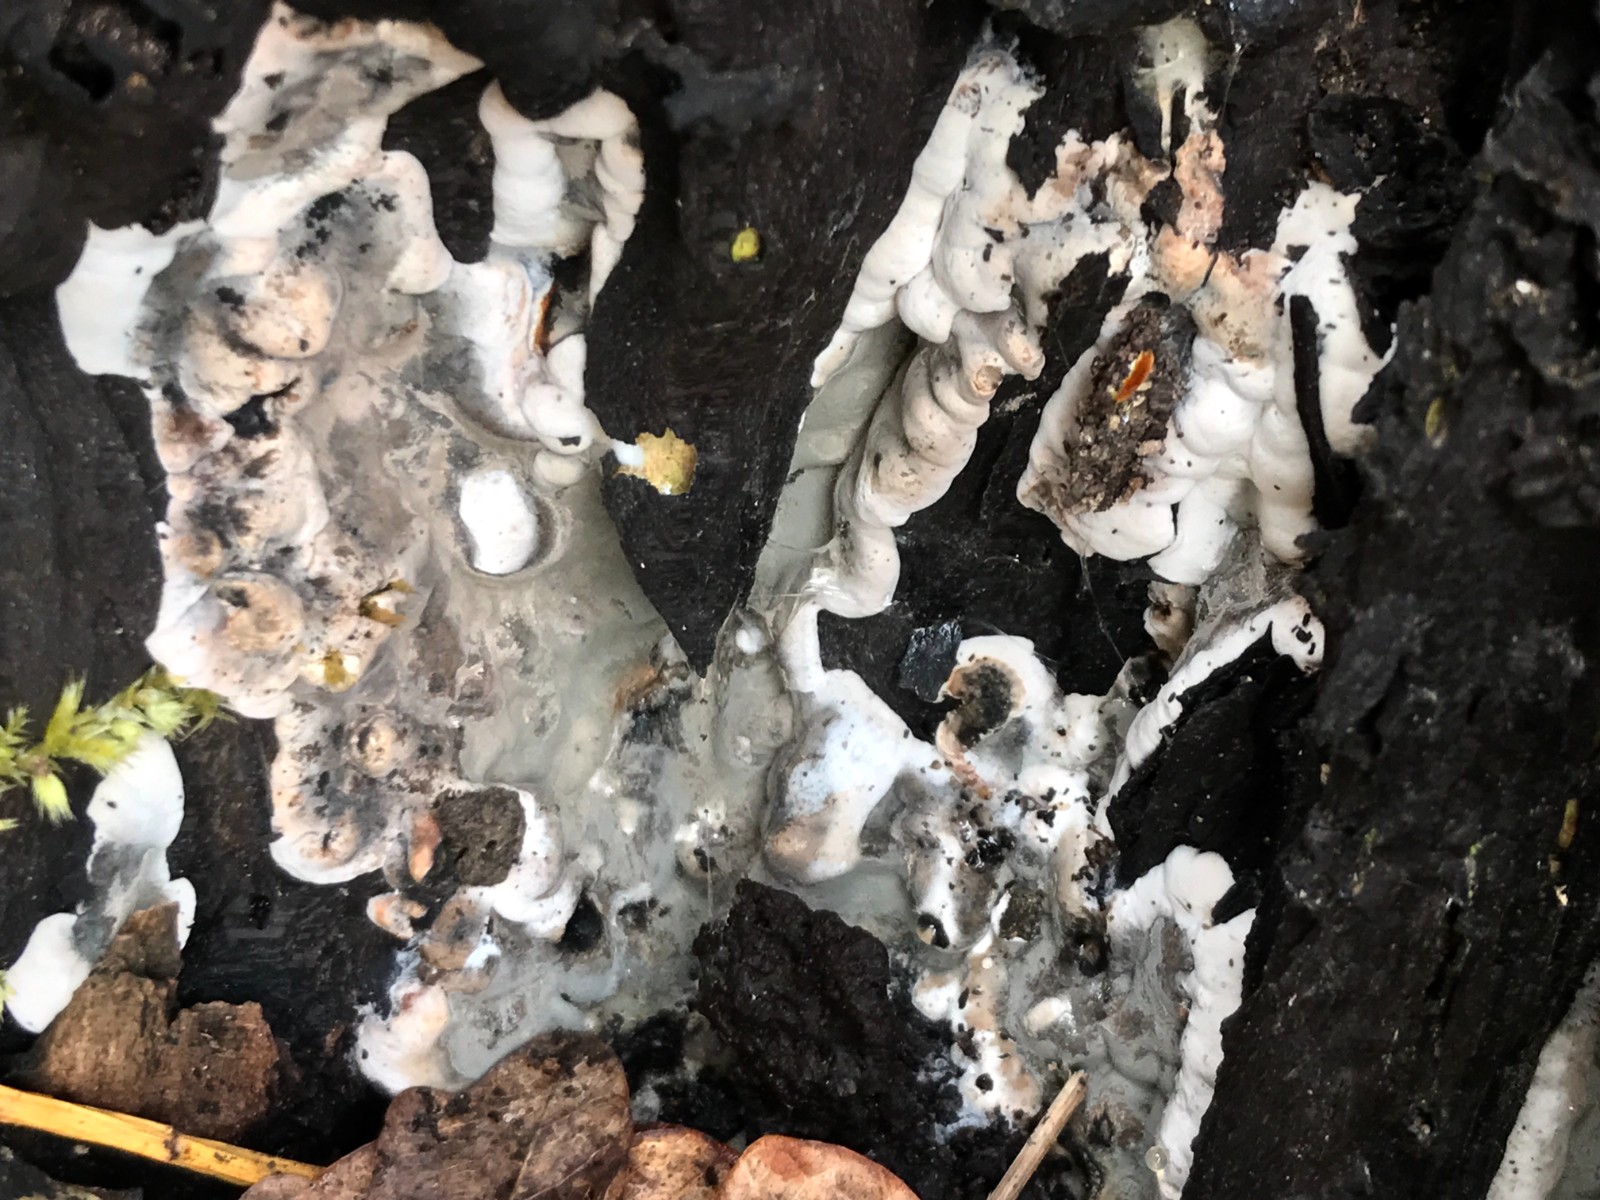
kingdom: Fungi
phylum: Ascomycota
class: Sordariomycetes
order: Xylariales
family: Xylariaceae
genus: Kretzschmaria
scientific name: Kretzschmaria deusta
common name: stor kulsvamp
